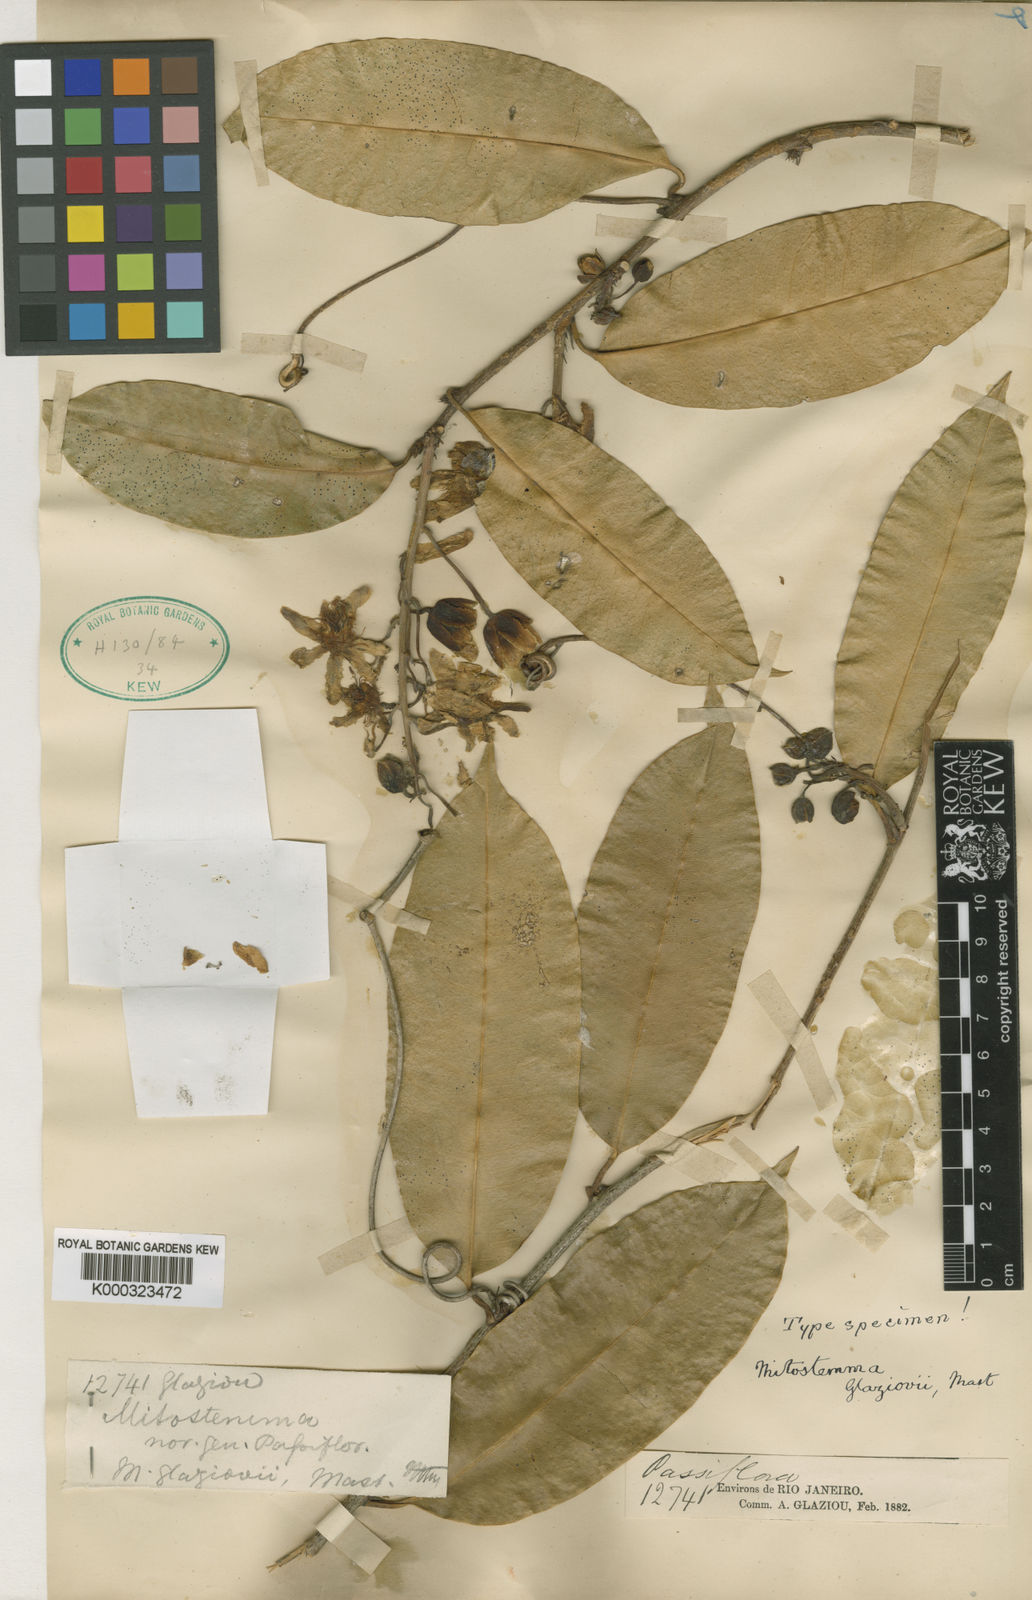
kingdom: Plantae
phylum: Tracheophyta
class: Magnoliopsida
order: Malpighiales
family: Passifloraceae
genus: Mitostemma
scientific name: Mitostemma glaziovii
